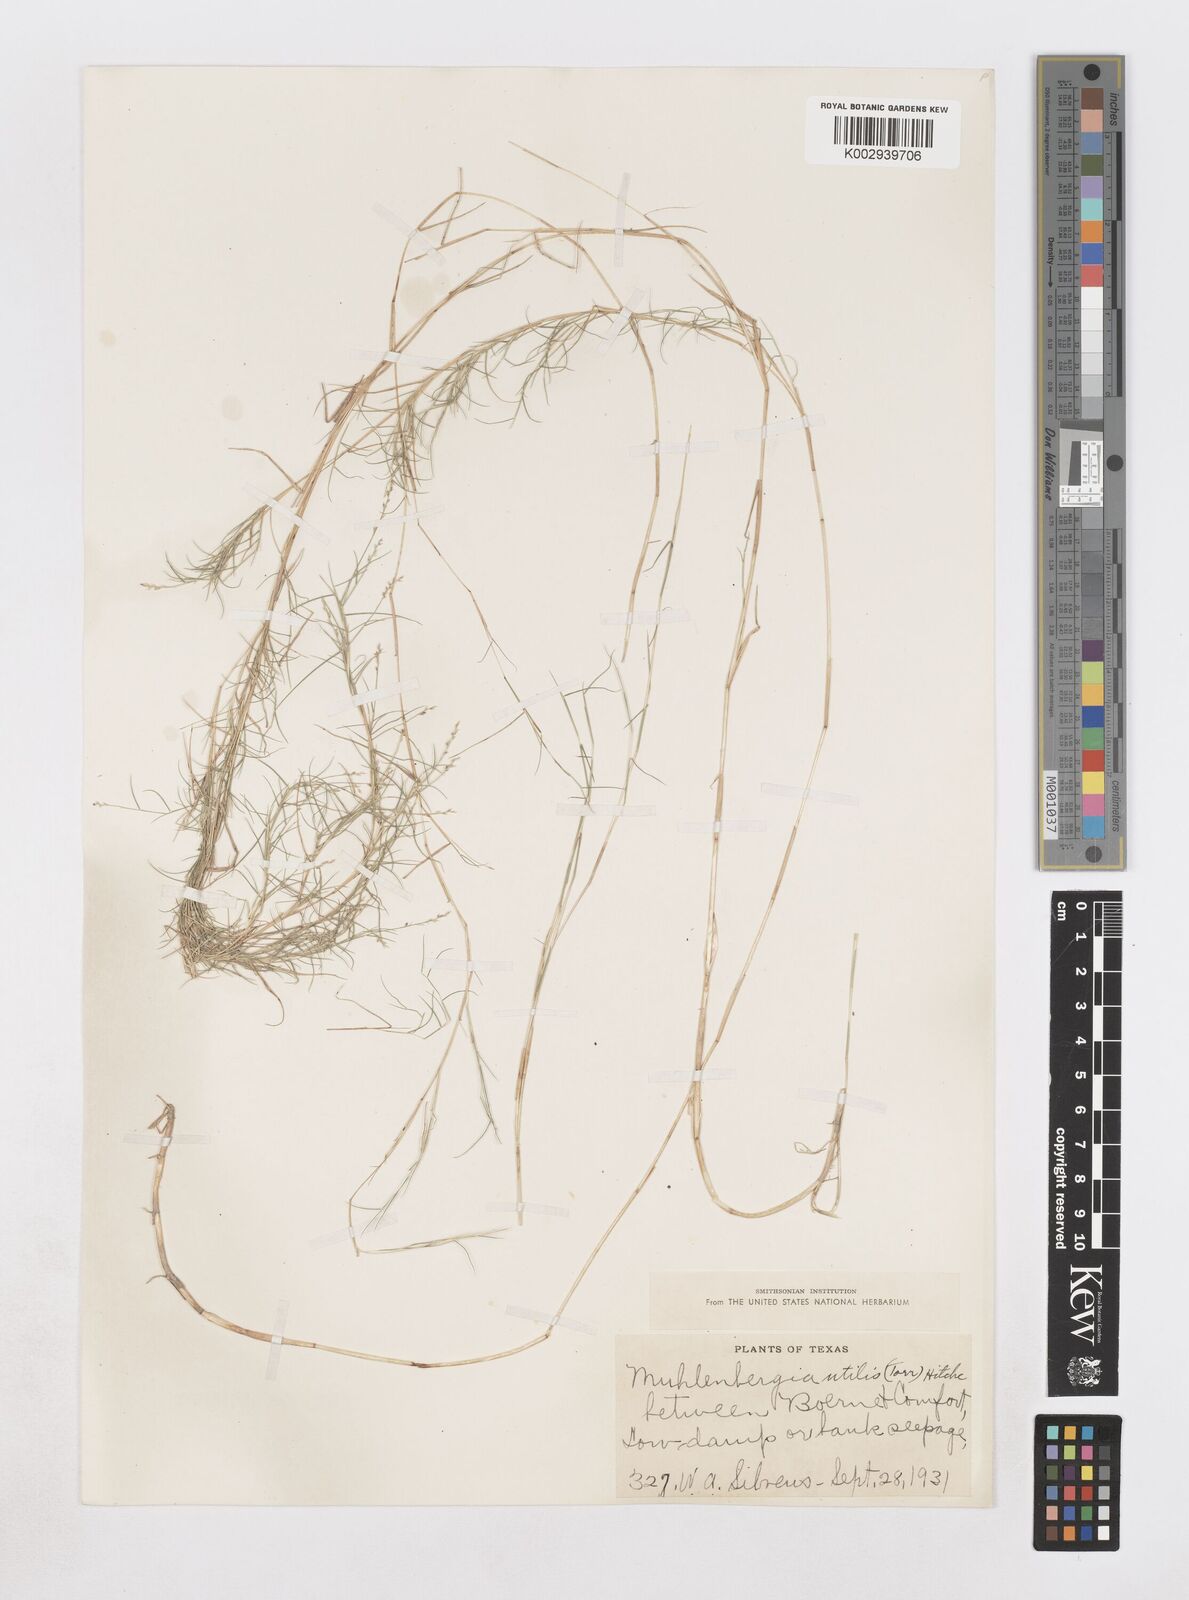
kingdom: Plantae
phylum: Tracheophyta
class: Liliopsida
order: Poales
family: Poaceae
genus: Muhlenbergia
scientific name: Muhlenbergia utilis
